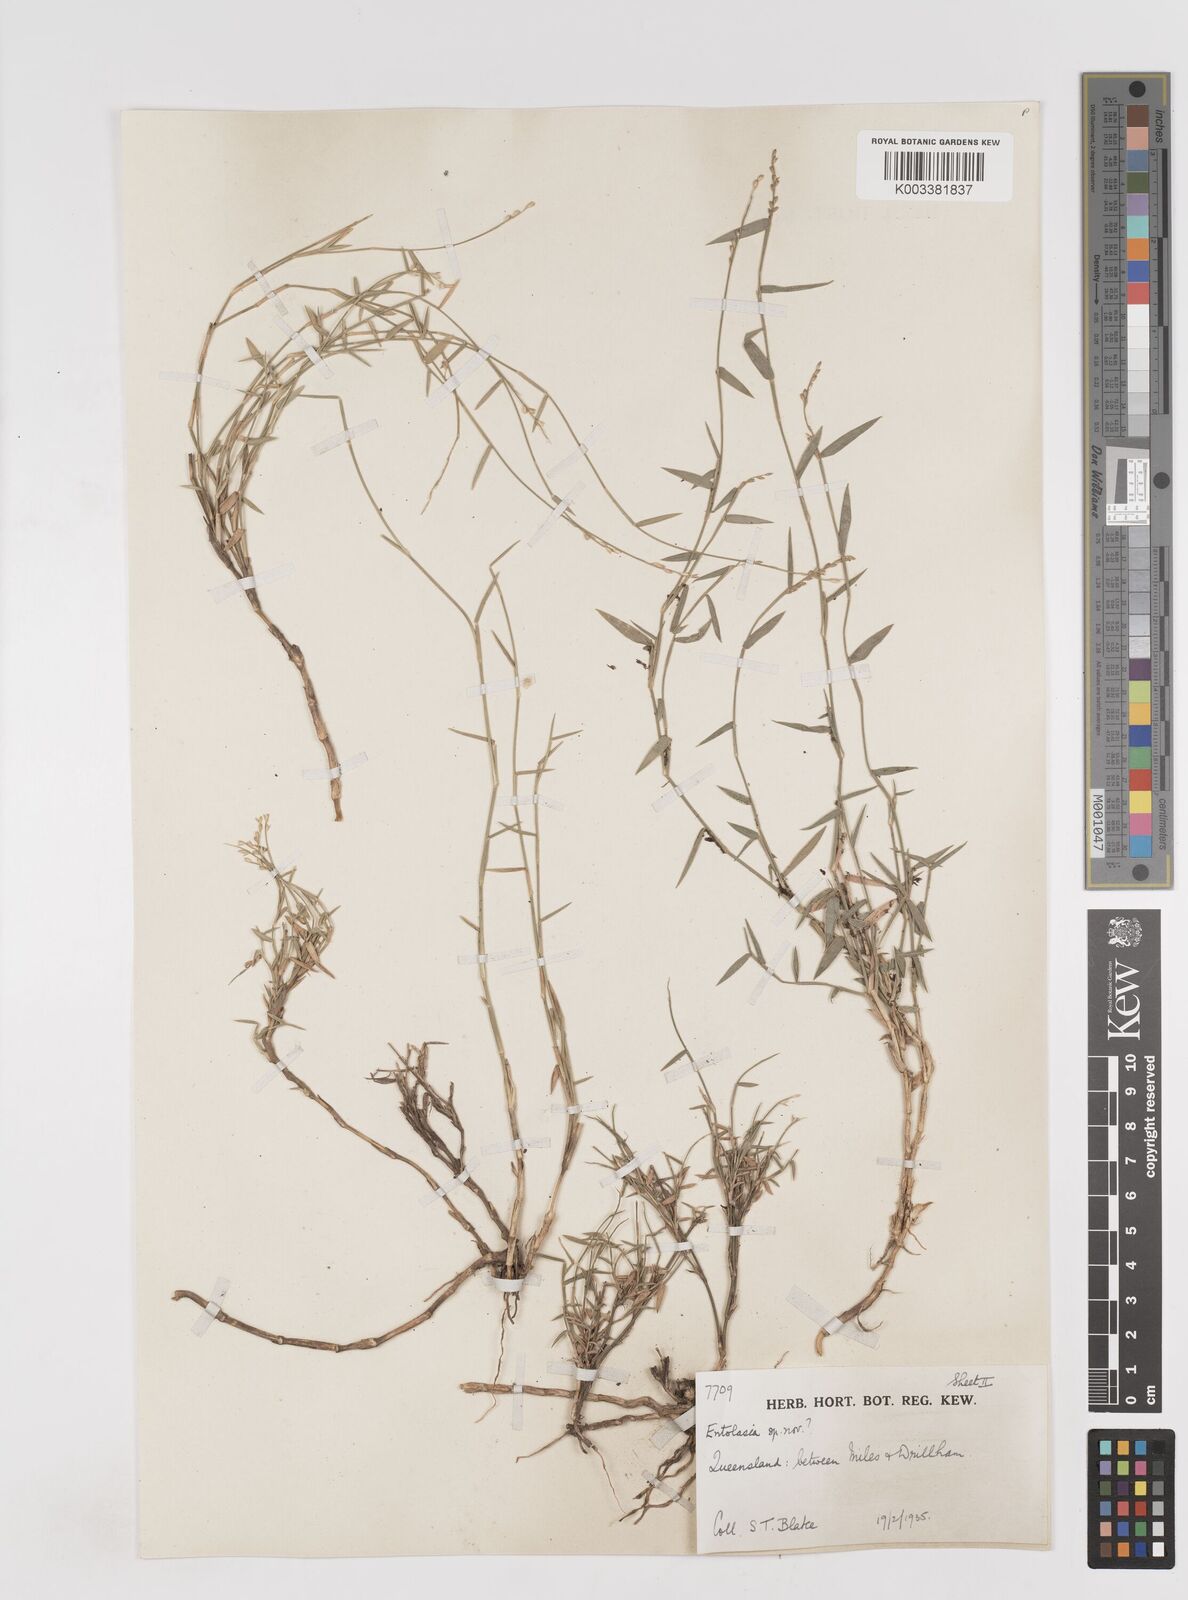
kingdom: Plantae
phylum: Tracheophyta
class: Liliopsida
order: Poales
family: Poaceae
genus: Entolasia
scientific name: Entolasia
